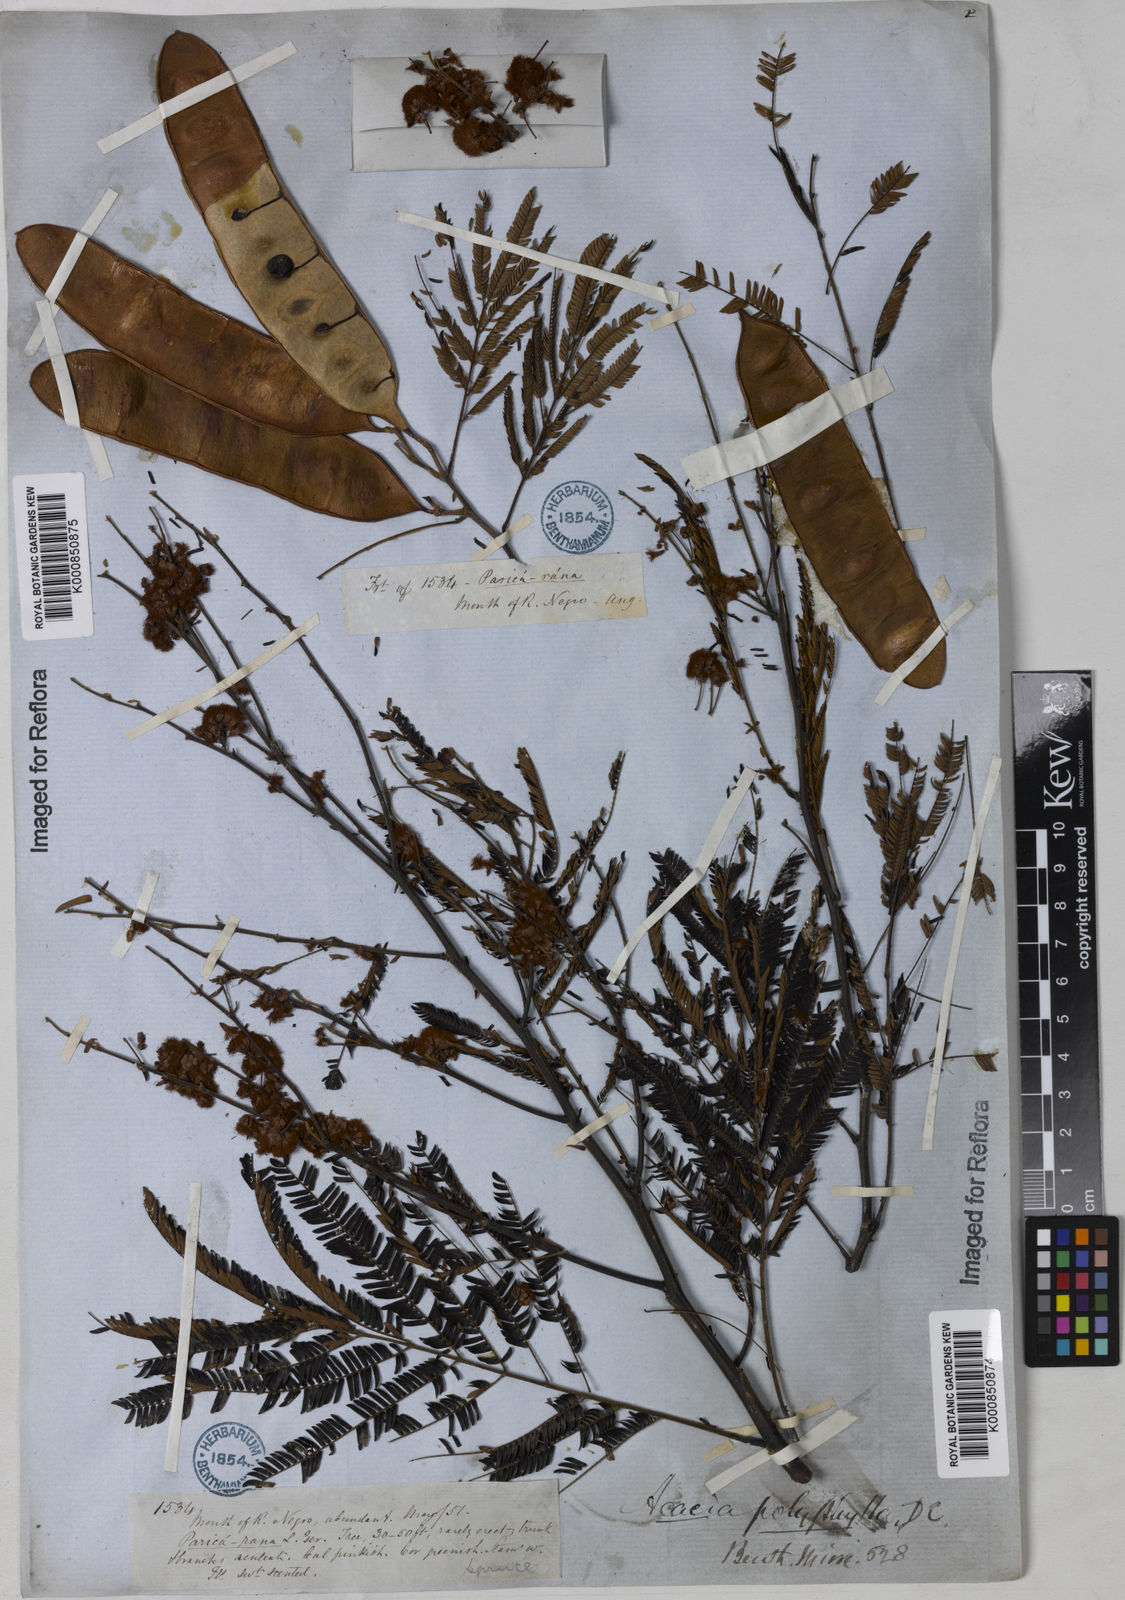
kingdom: Plantae
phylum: Tracheophyta
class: Magnoliopsida
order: Fabales
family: Fabaceae
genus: Senegalia
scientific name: Senegalia polyphylla
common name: White-tamarind
